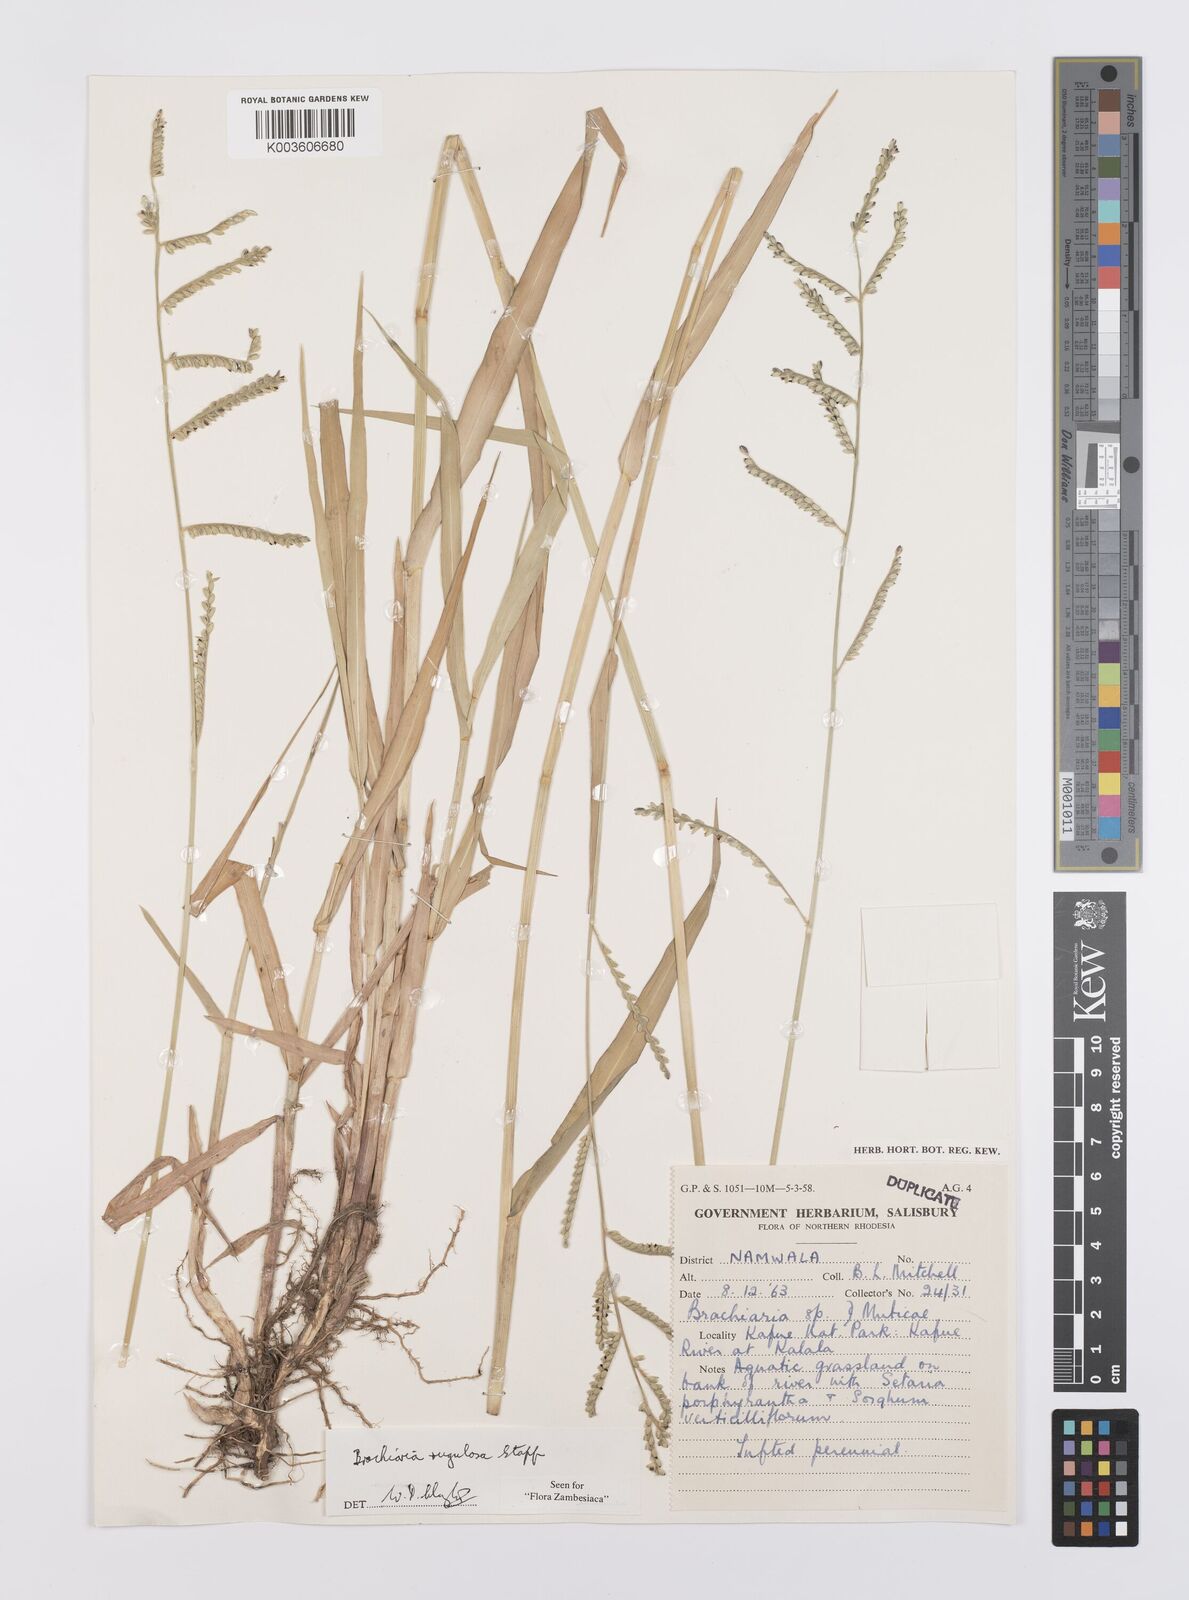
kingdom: Plantae
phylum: Tracheophyta
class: Liliopsida
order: Poales
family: Poaceae
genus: Urochloa
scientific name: Urochloa rugulosa
